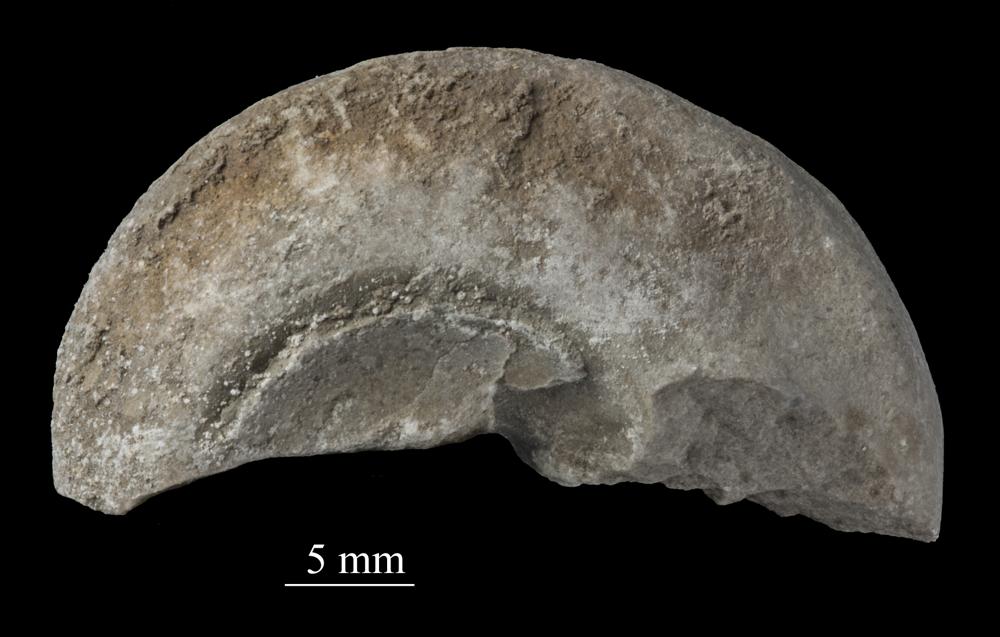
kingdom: Animalia
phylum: Mollusca
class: Gastropoda
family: Lophospiridae
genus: Lophospira
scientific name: Lophospira
